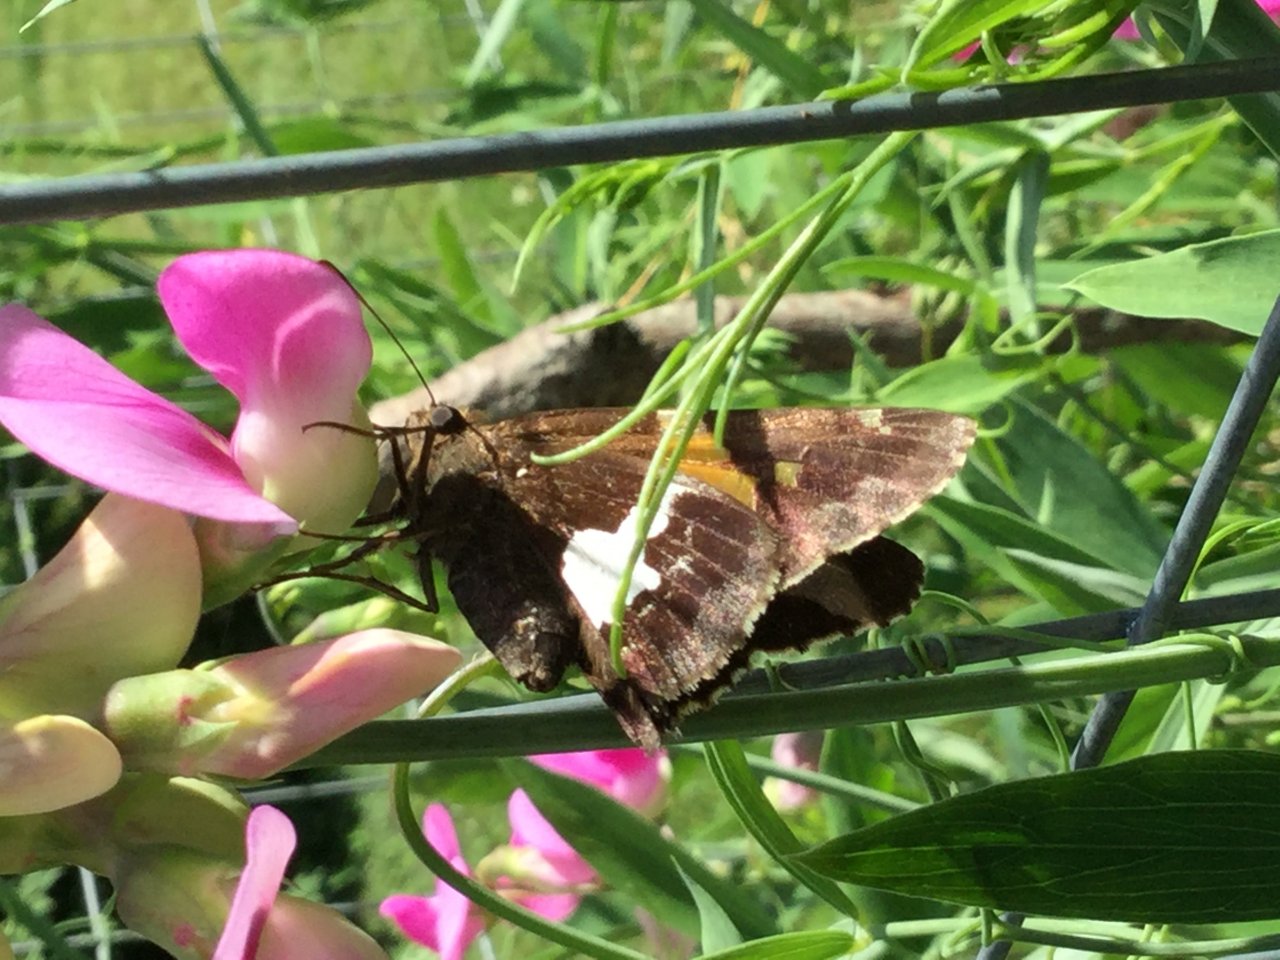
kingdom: Animalia
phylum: Arthropoda
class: Insecta
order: Lepidoptera
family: Hesperiidae
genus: Epargyreus
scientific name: Epargyreus clarus
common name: Silver-spotted Skipper
